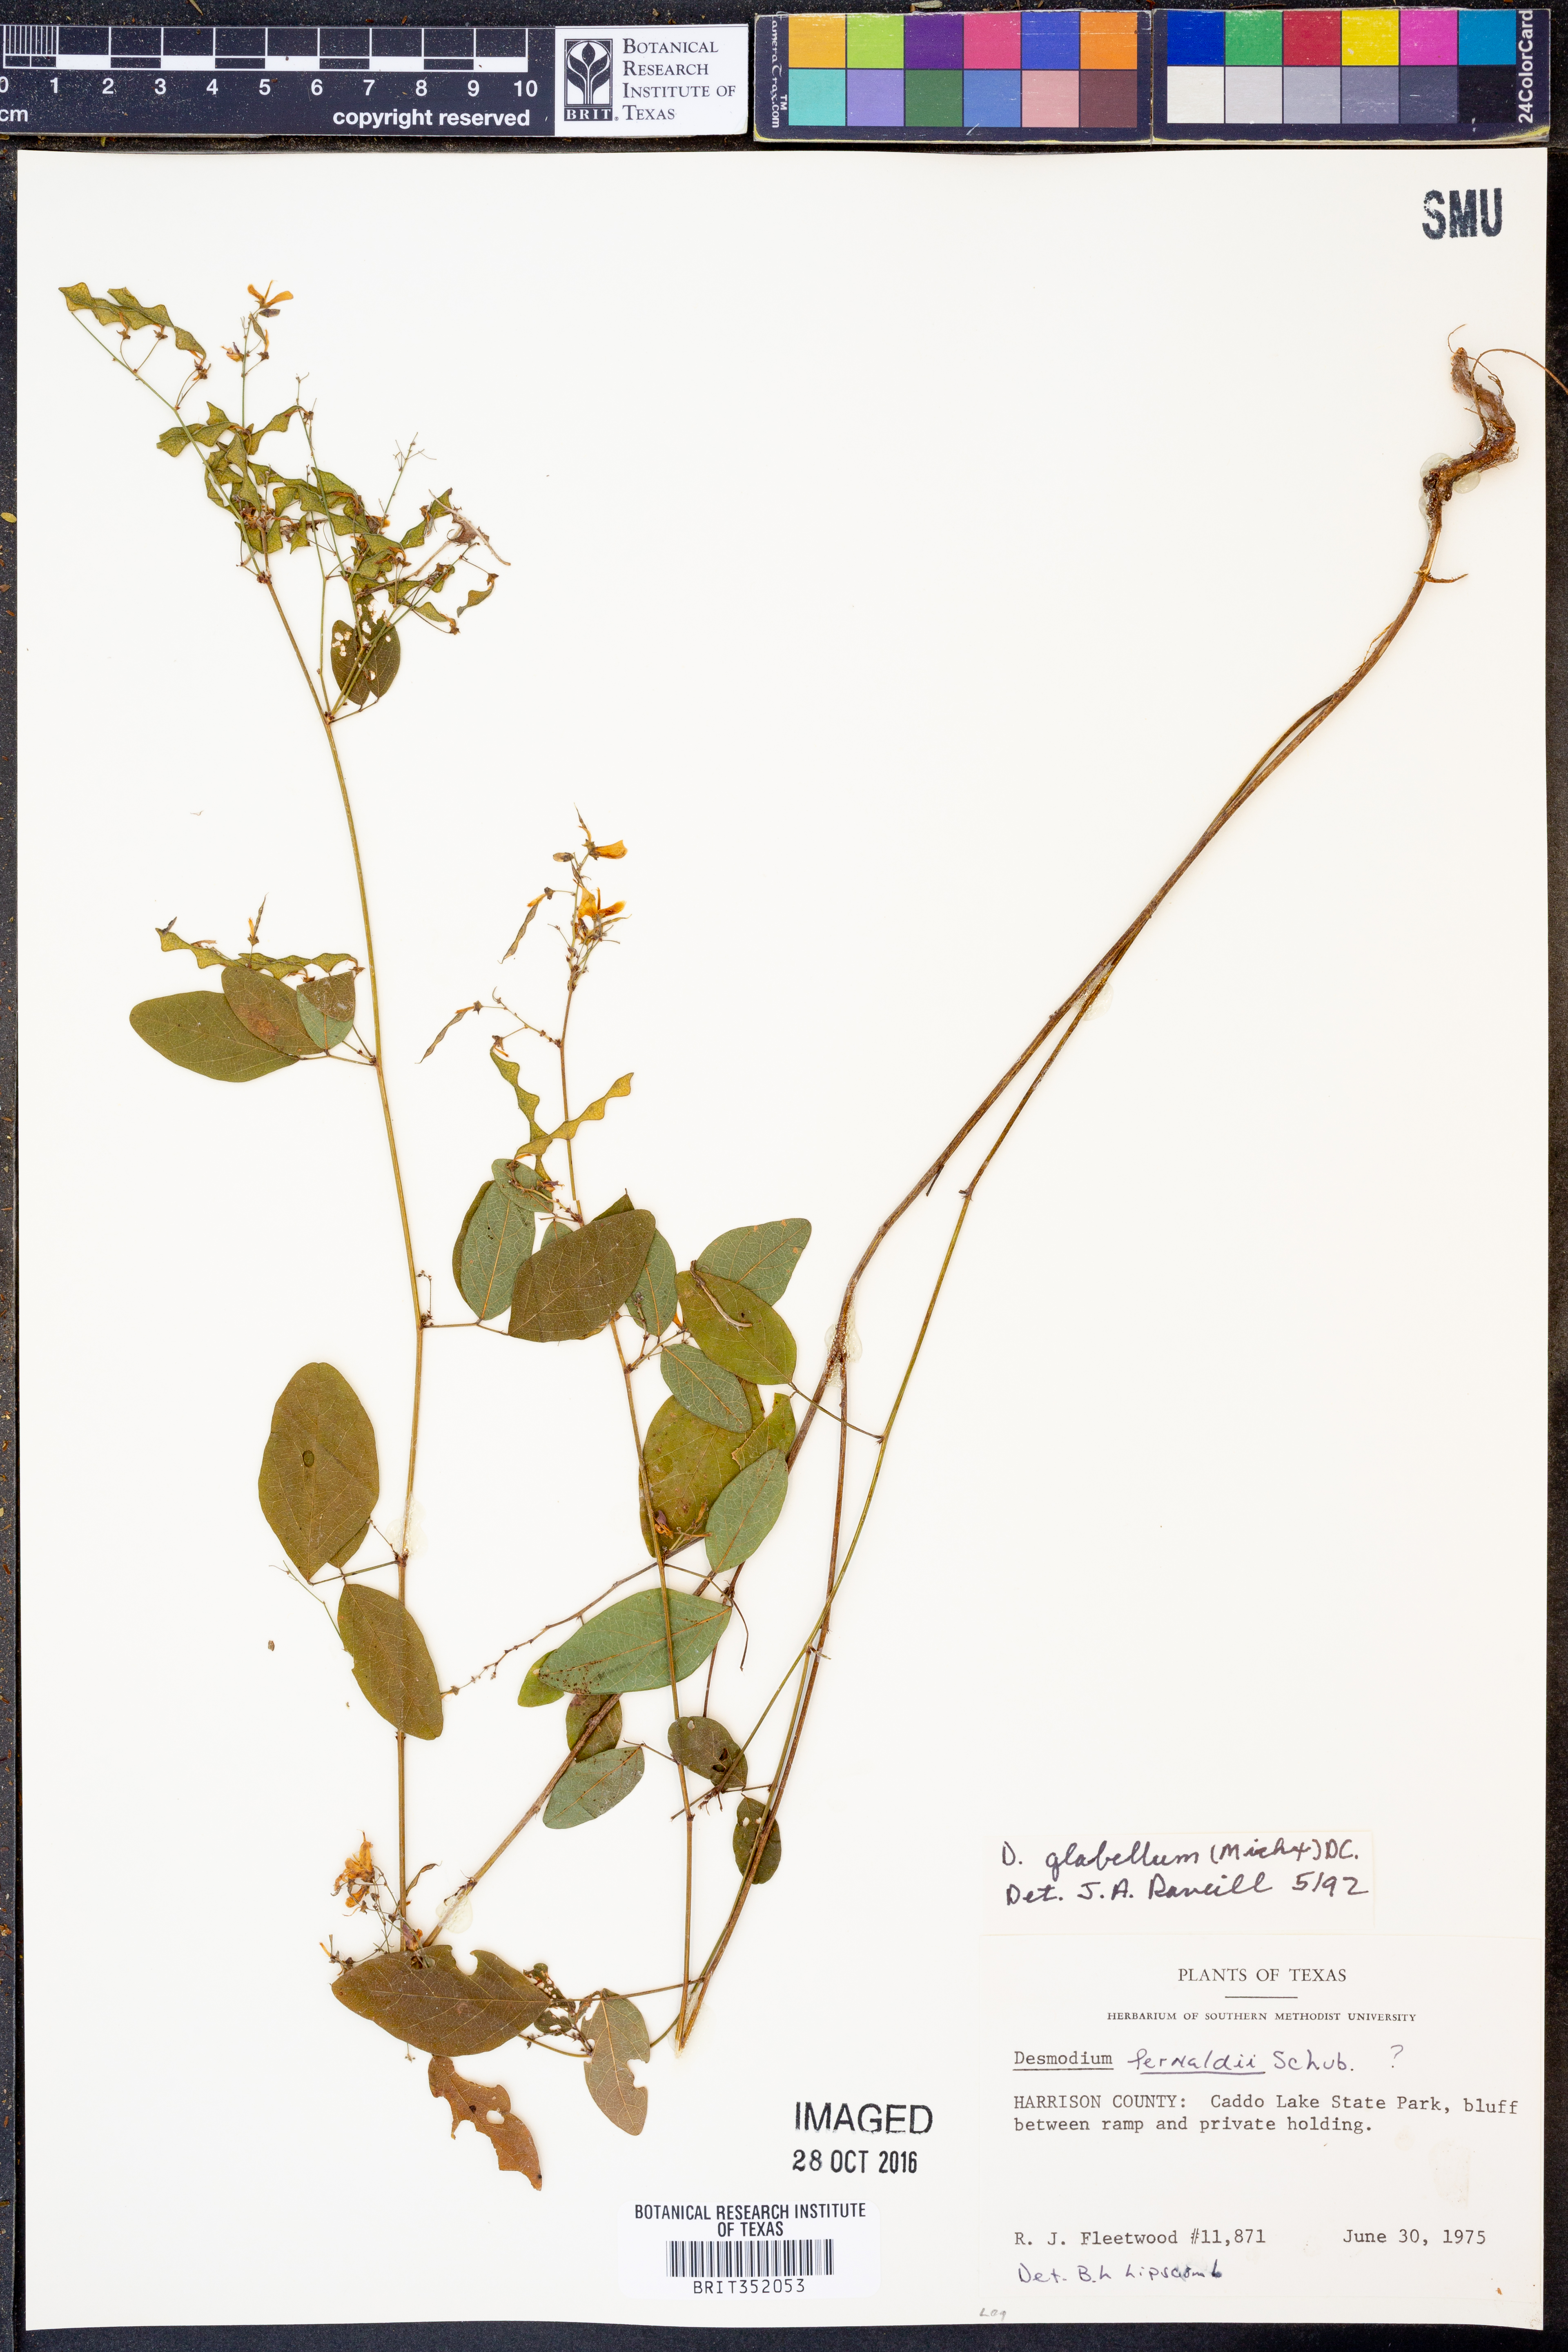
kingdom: Plantae
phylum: Tracheophyta
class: Magnoliopsida
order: Fabales
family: Fabaceae
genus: Desmodium
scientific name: Desmodium fernaldii
